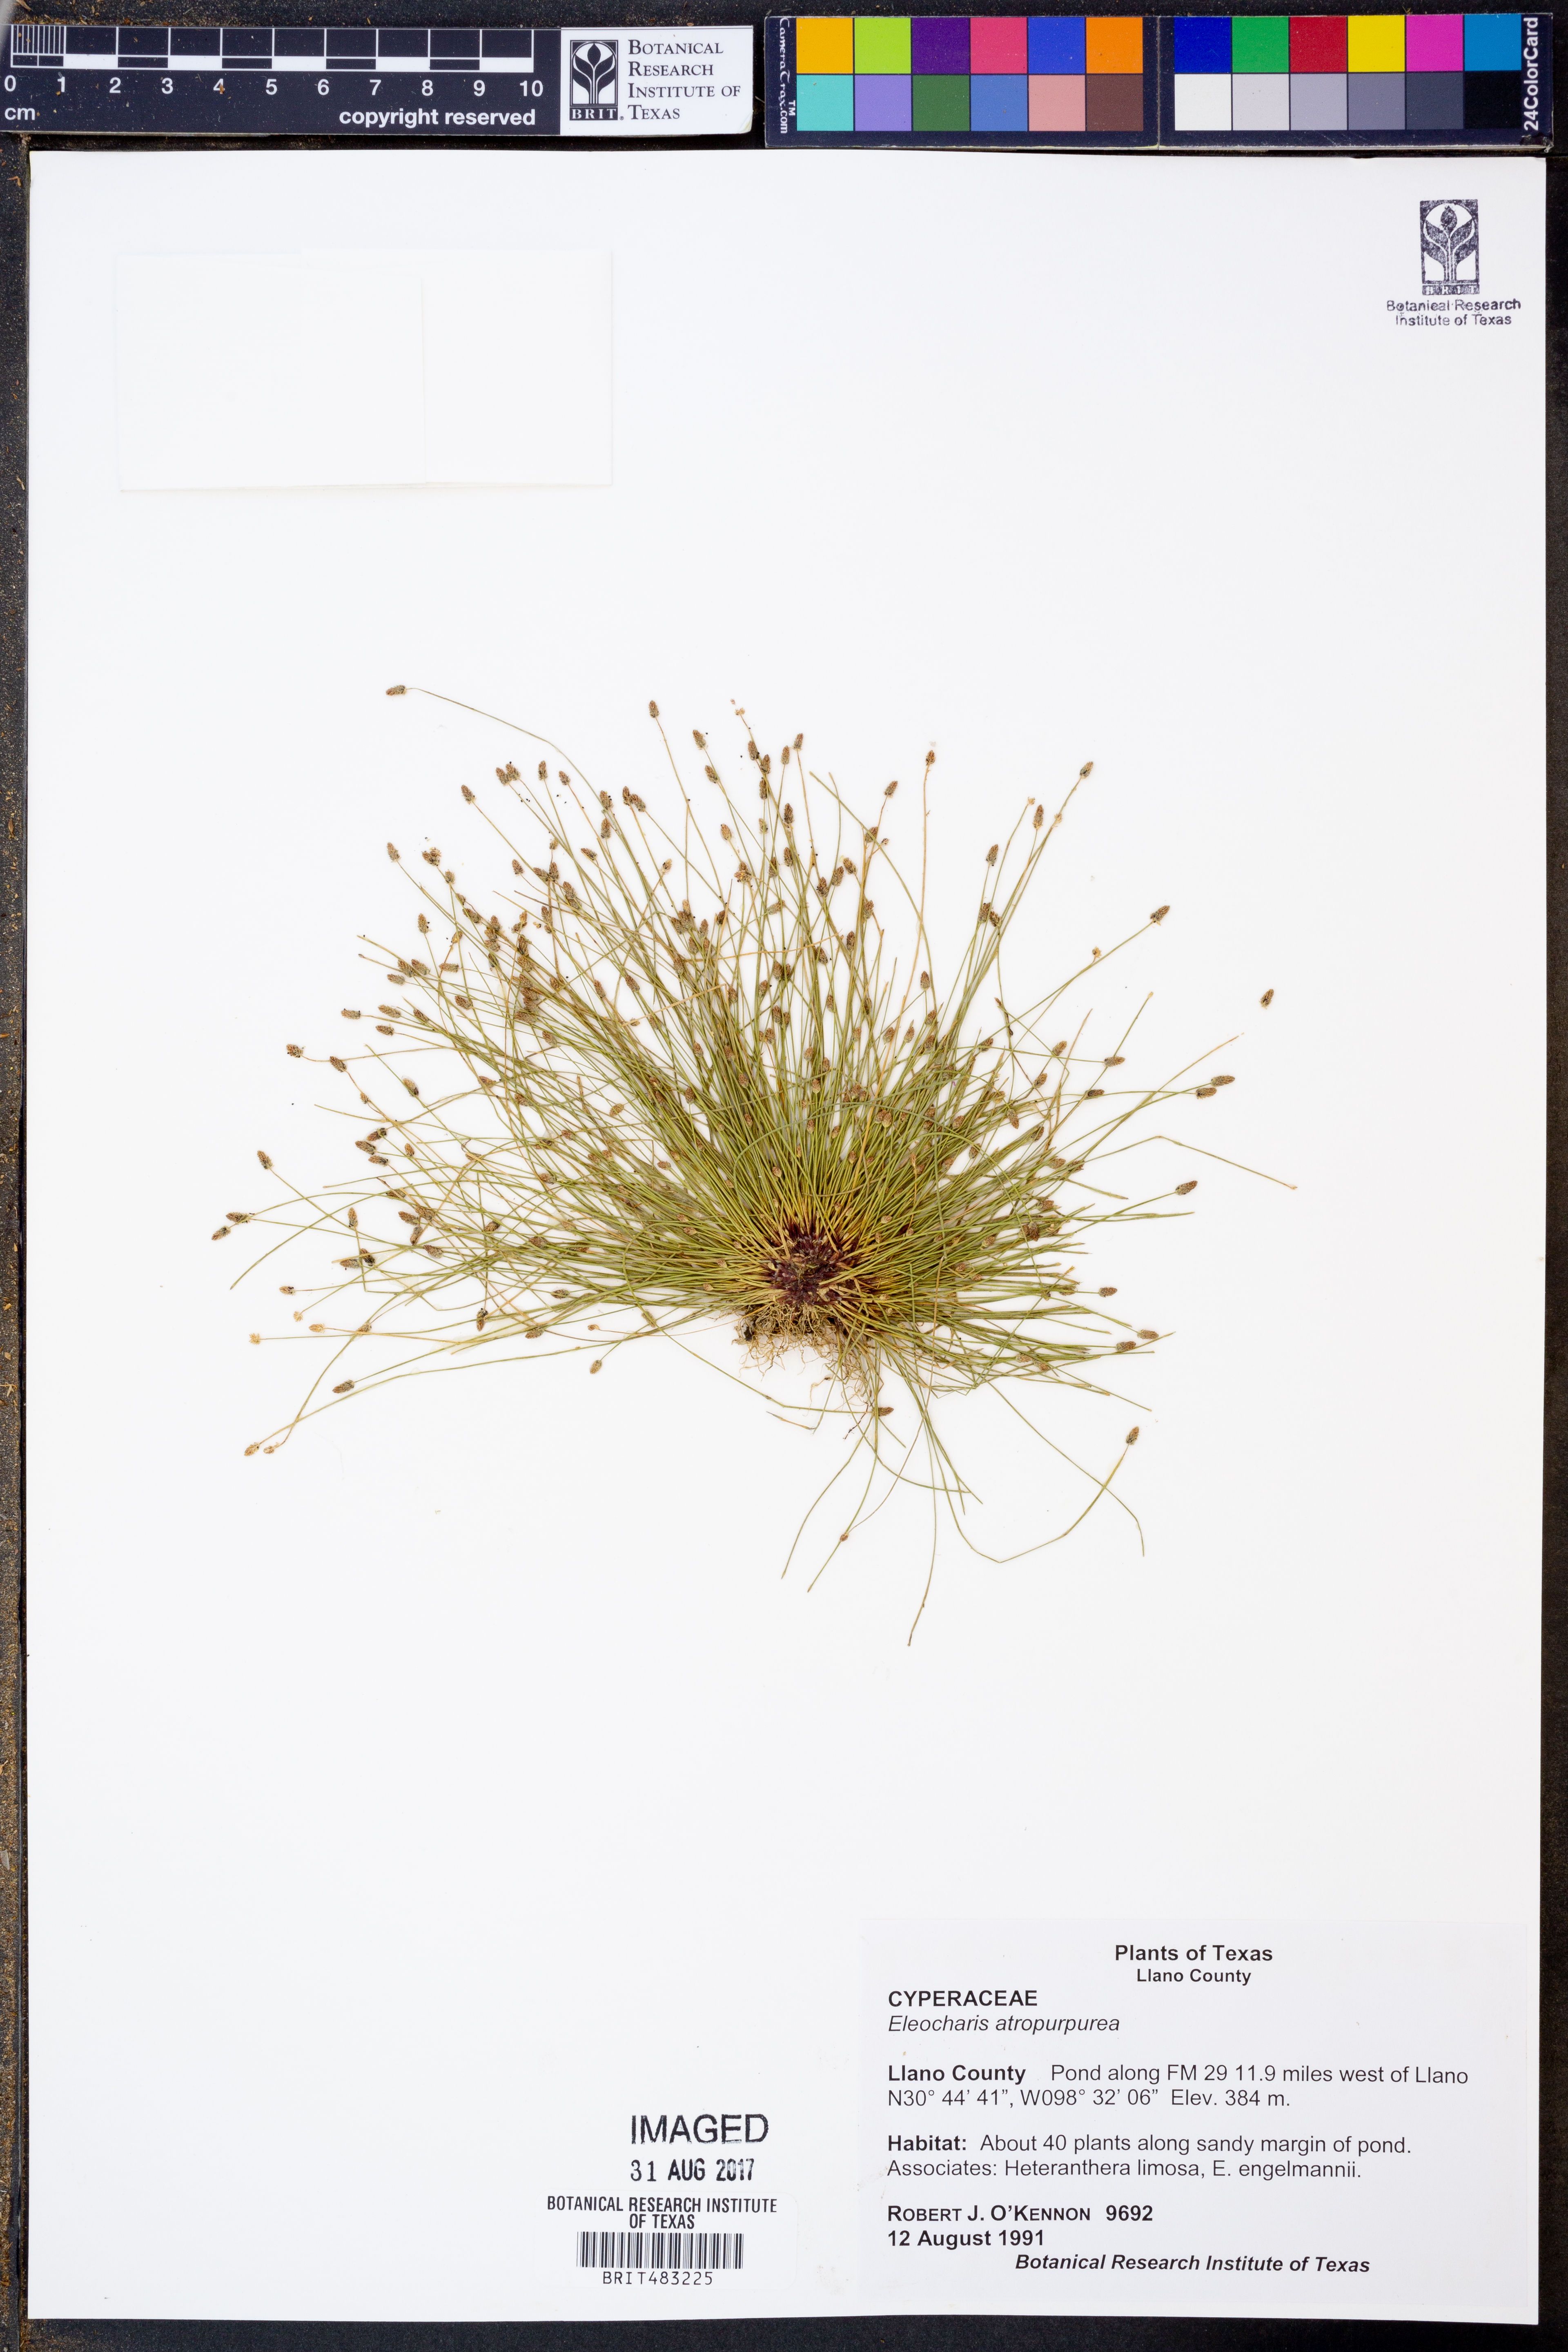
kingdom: Plantae
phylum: Tracheophyta
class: Liliopsida
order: Poales
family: Cyperaceae
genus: Eleocharis
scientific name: Eleocharis atropurpurea
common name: Purple spikerush
